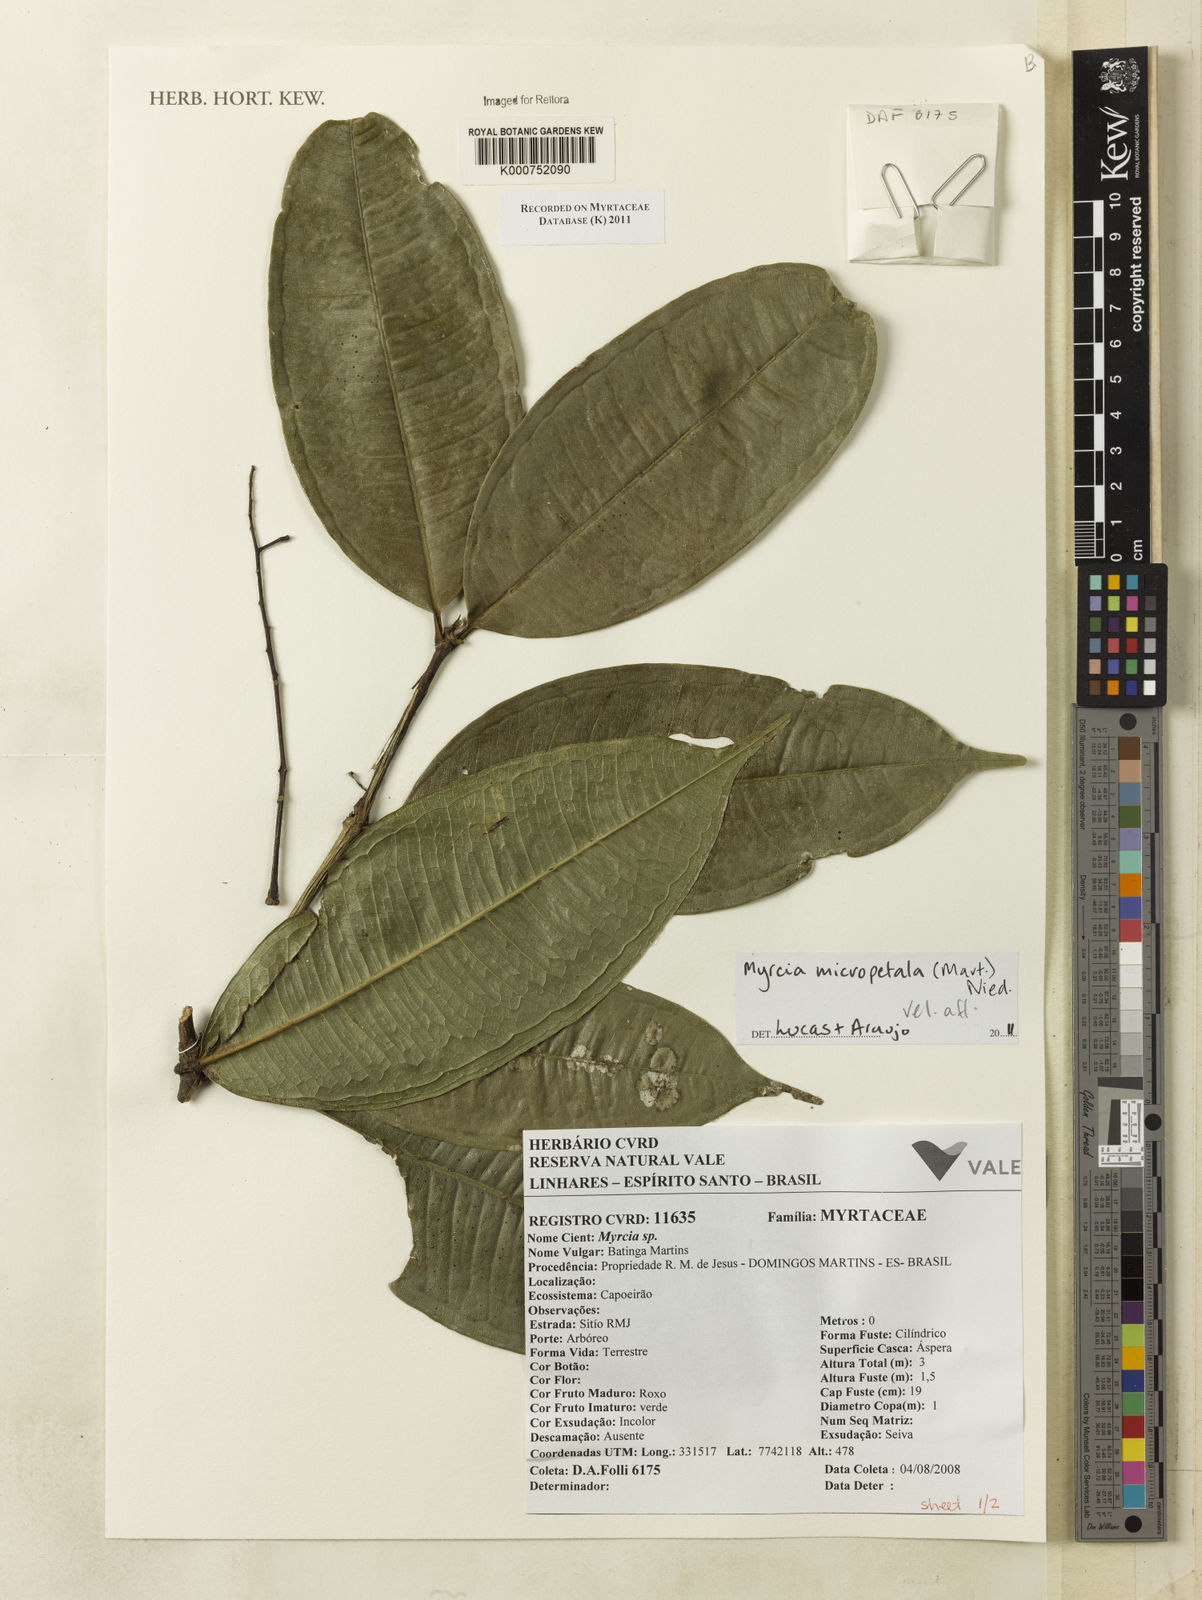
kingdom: Plantae
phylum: Tracheophyta
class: Magnoliopsida
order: Myrtales
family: Myrtaceae
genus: Myrcia
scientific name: Myrcia micropetala
